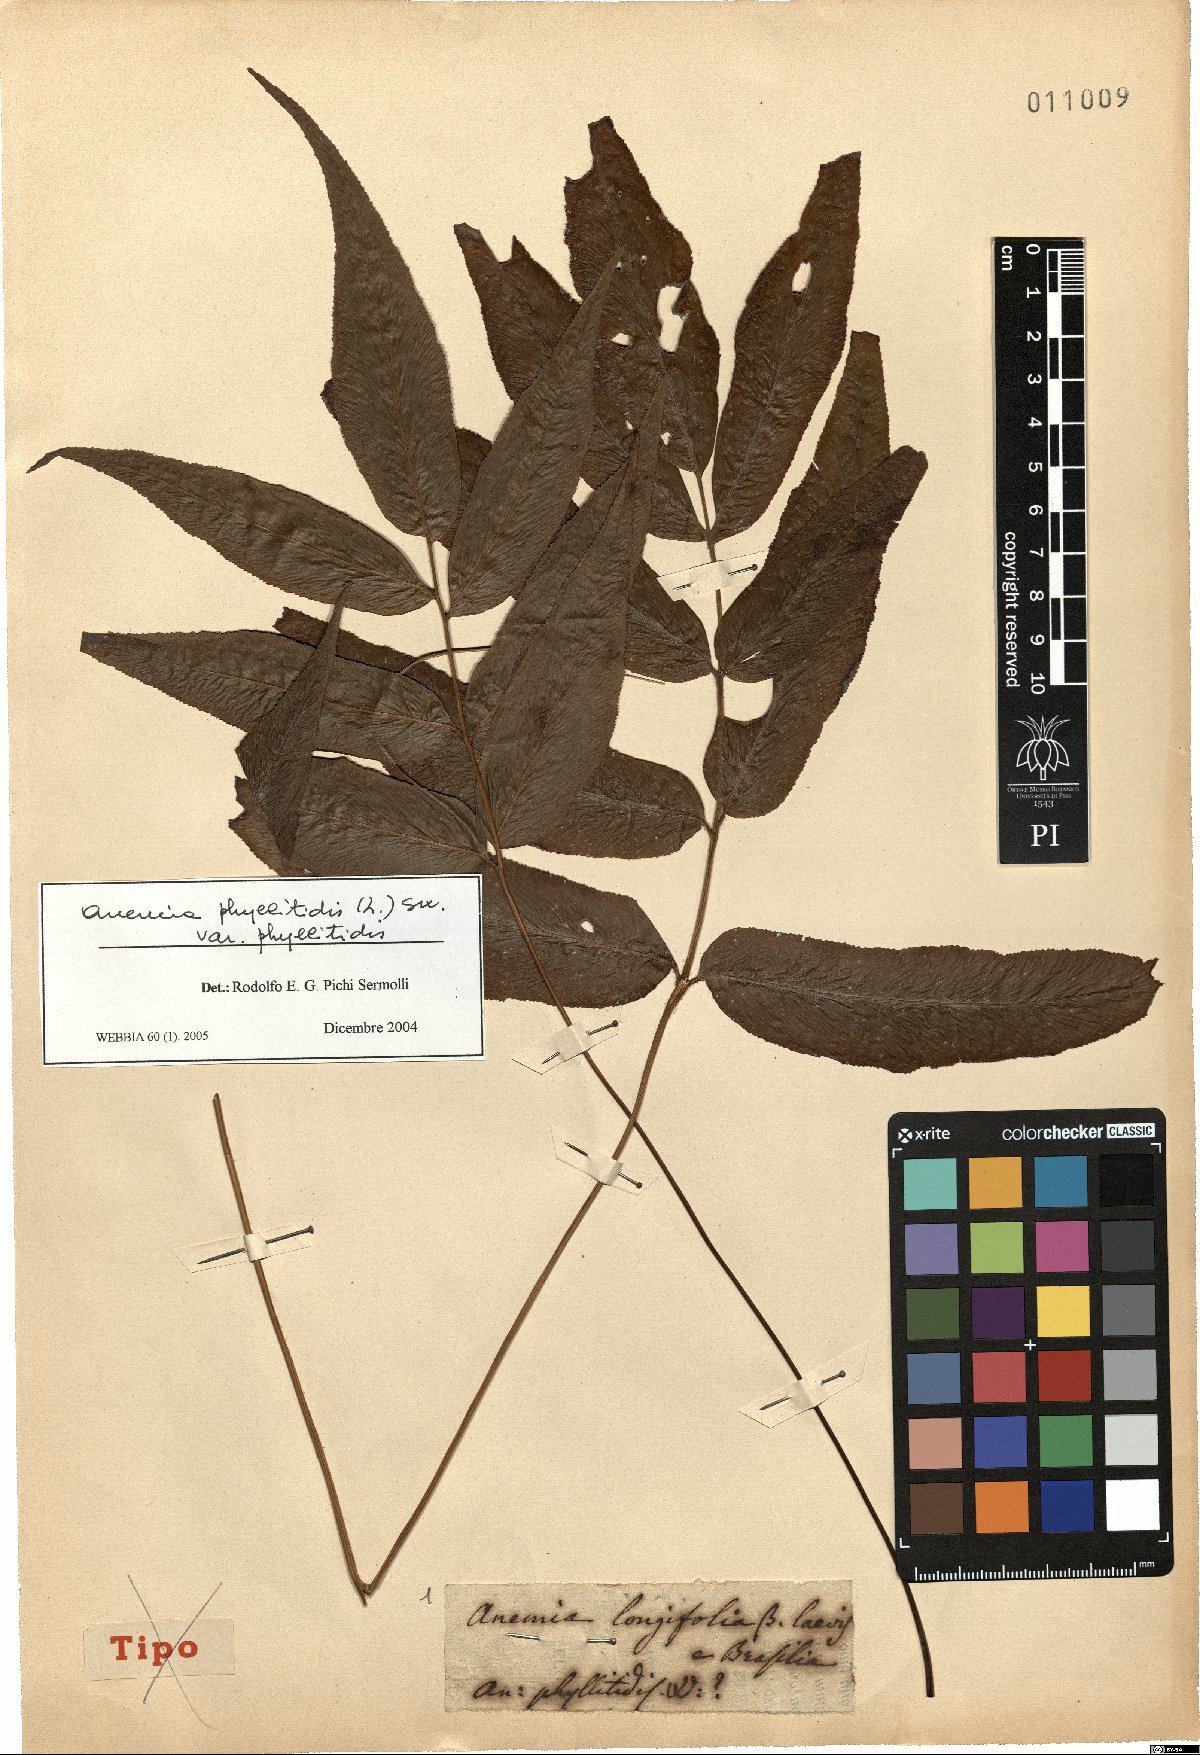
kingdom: Plantae
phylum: Tracheophyta
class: Polypodiopsida
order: Schizaeales
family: Anemiaceae
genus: Anemia
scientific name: Anemia phyllitidis
